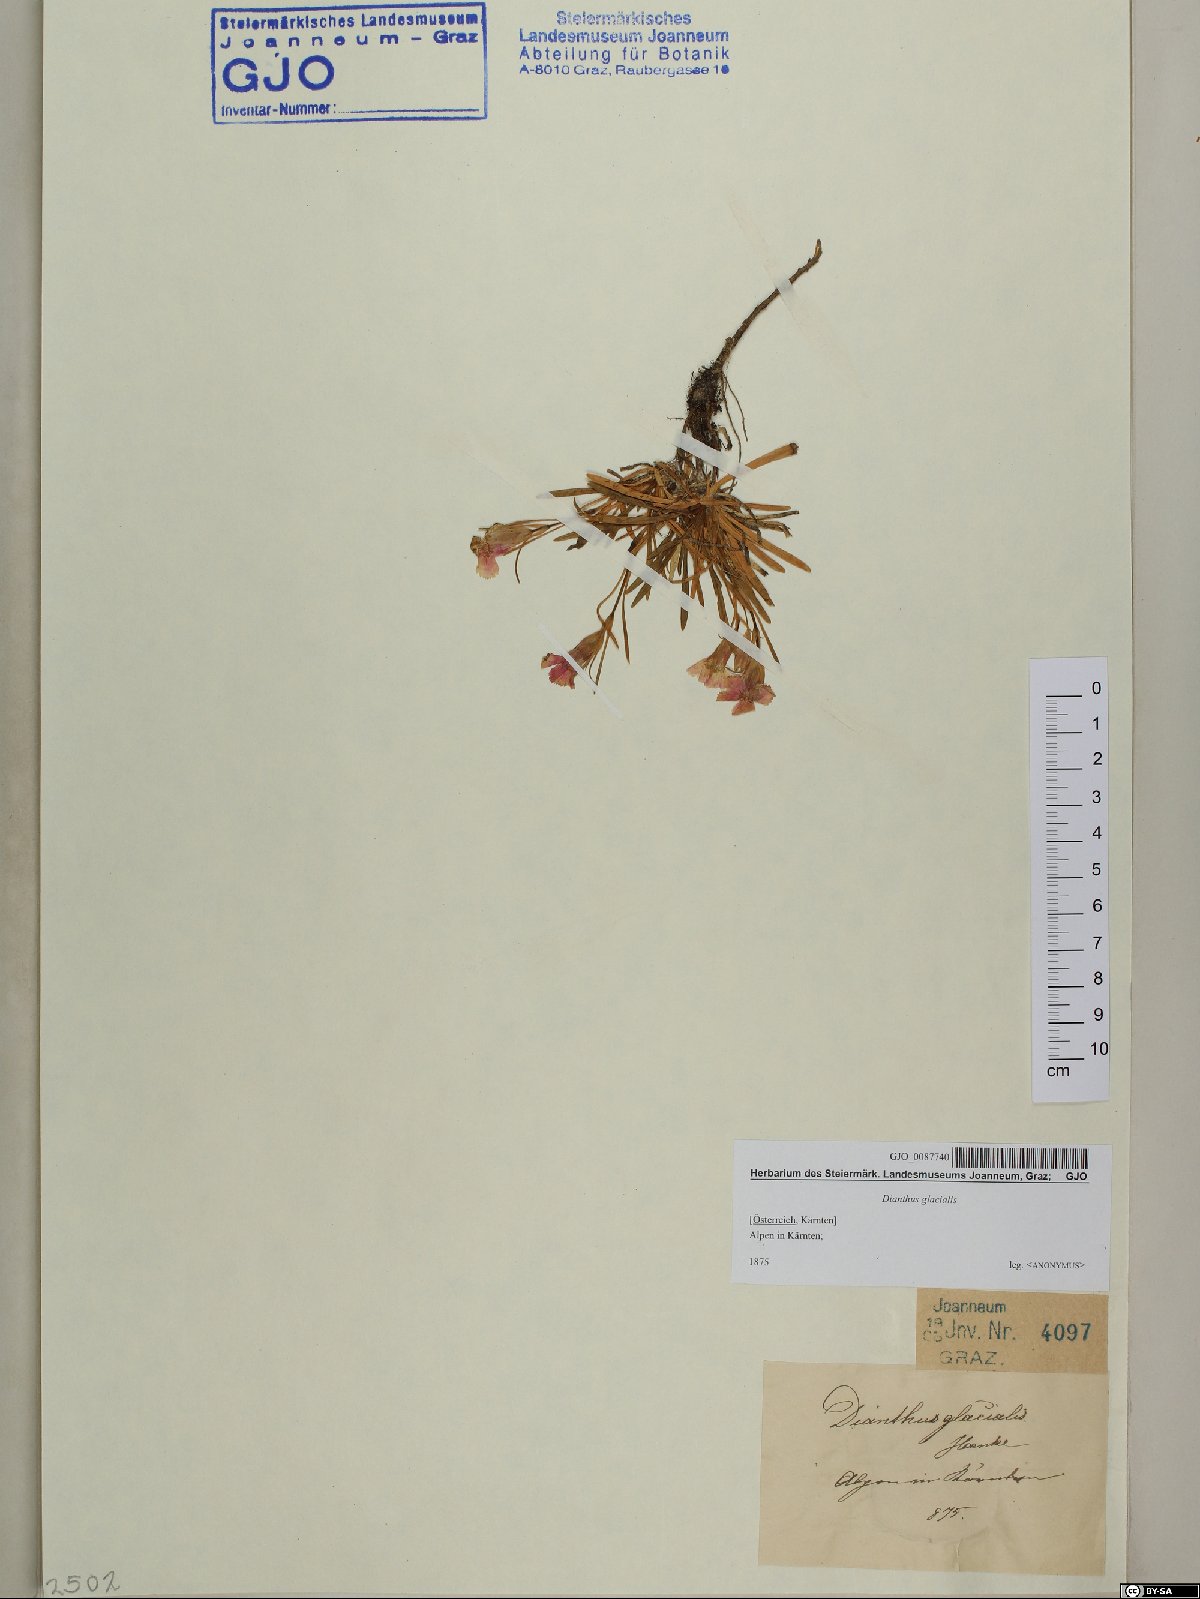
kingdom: Plantae
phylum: Tracheophyta
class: Magnoliopsida
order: Caryophyllales
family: Caryophyllaceae
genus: Dianthus
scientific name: Dianthus glacialis
